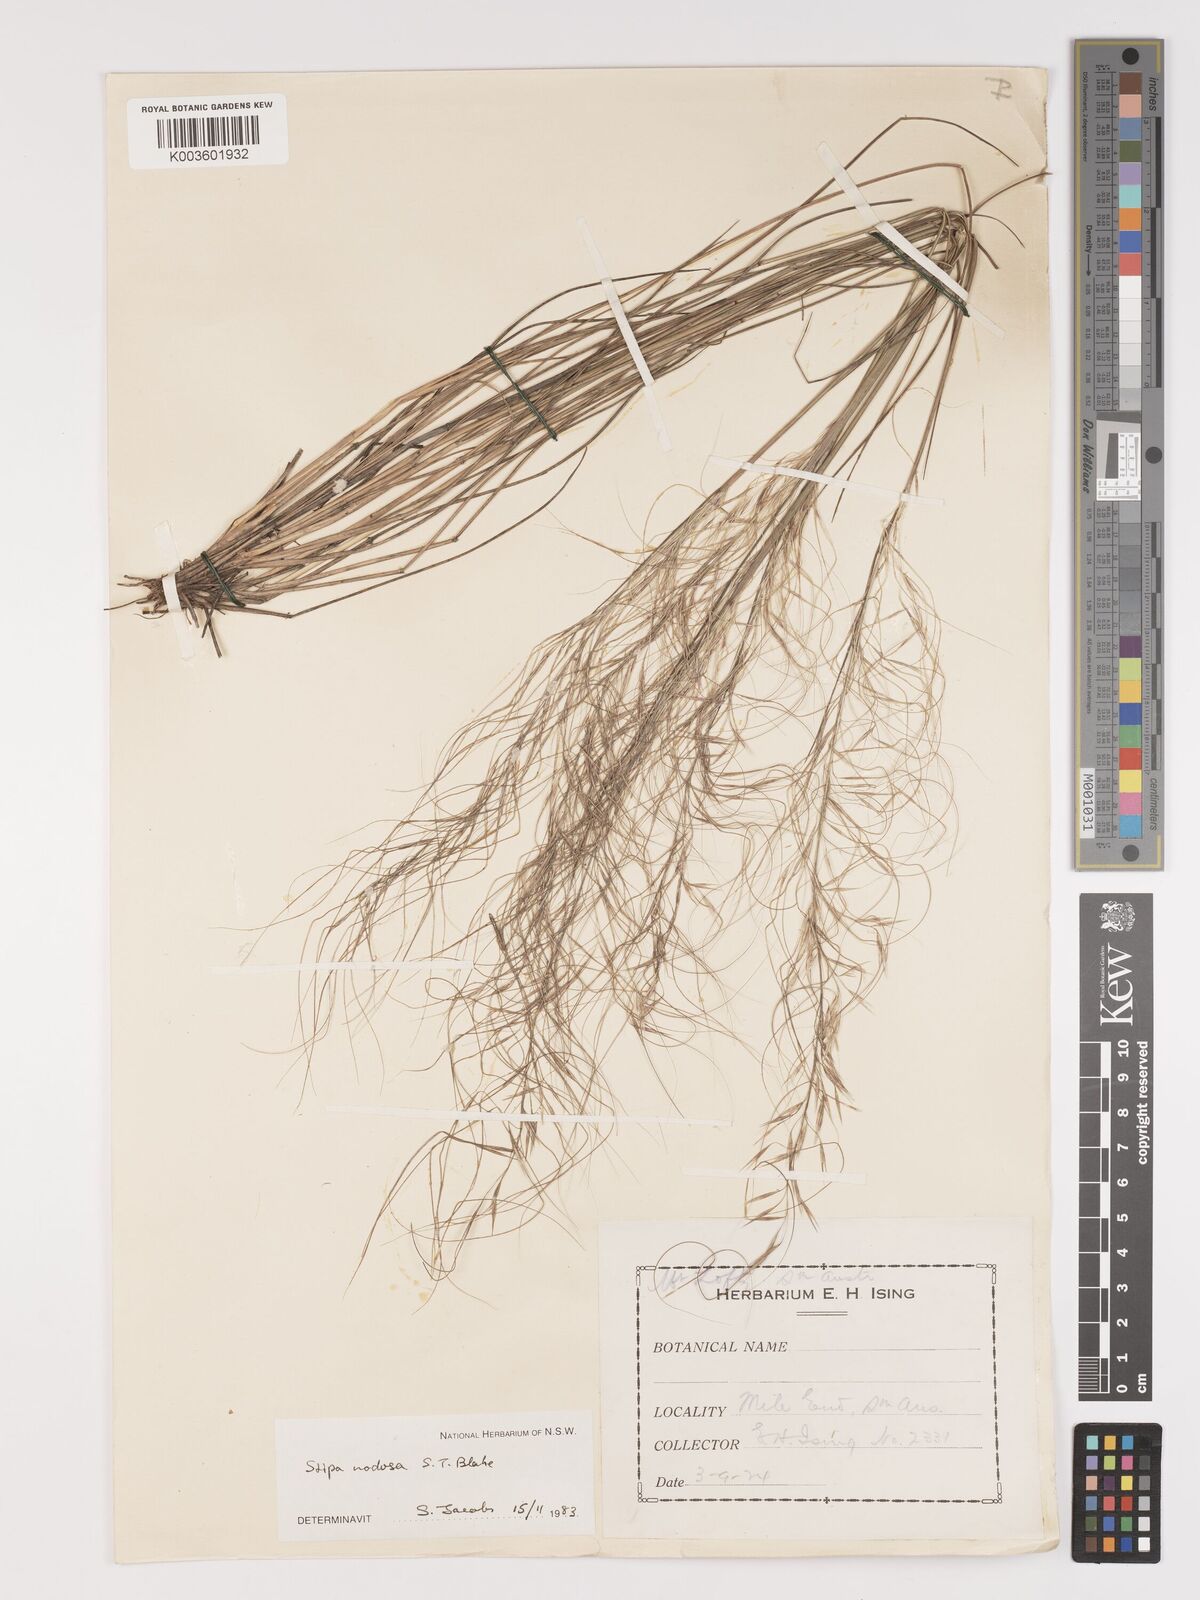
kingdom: Plantae
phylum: Tracheophyta
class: Liliopsida
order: Poales
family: Poaceae
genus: Austrostipa
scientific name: Austrostipa nodosa
